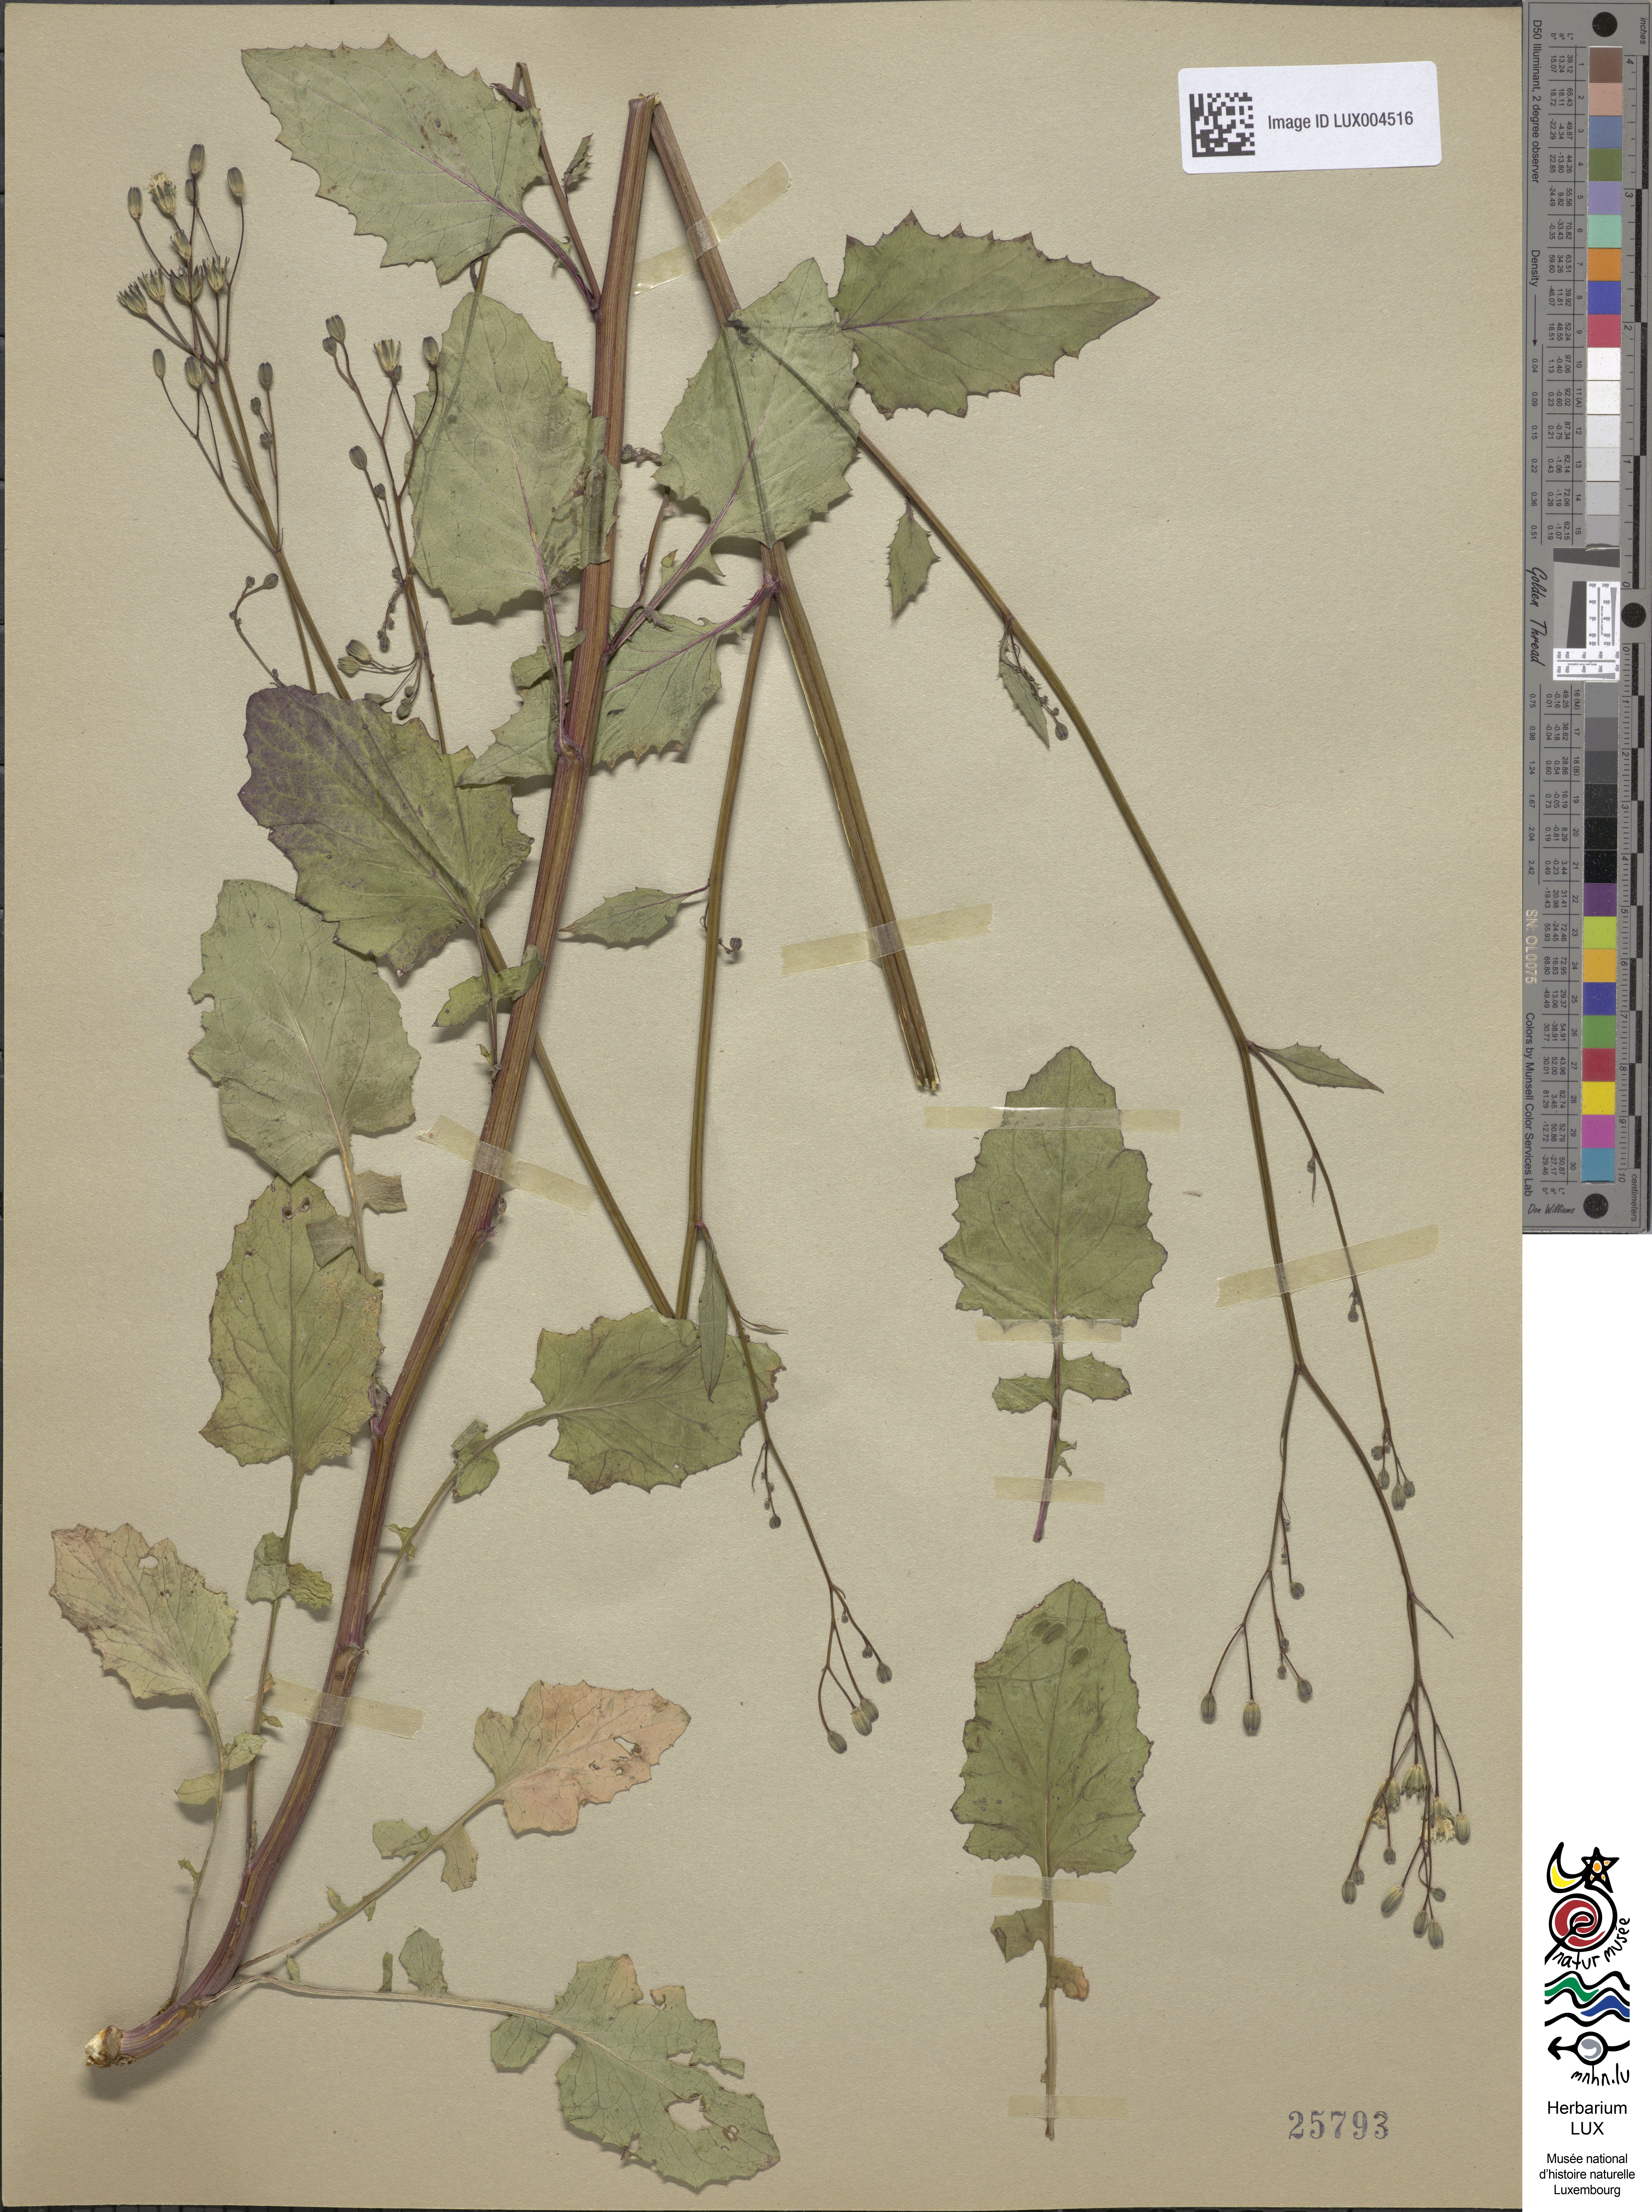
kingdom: Plantae
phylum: Tracheophyta
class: Magnoliopsida
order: Asterales
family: Asteraceae
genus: Lapsana
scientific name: Lapsana communis
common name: Nipplewort
